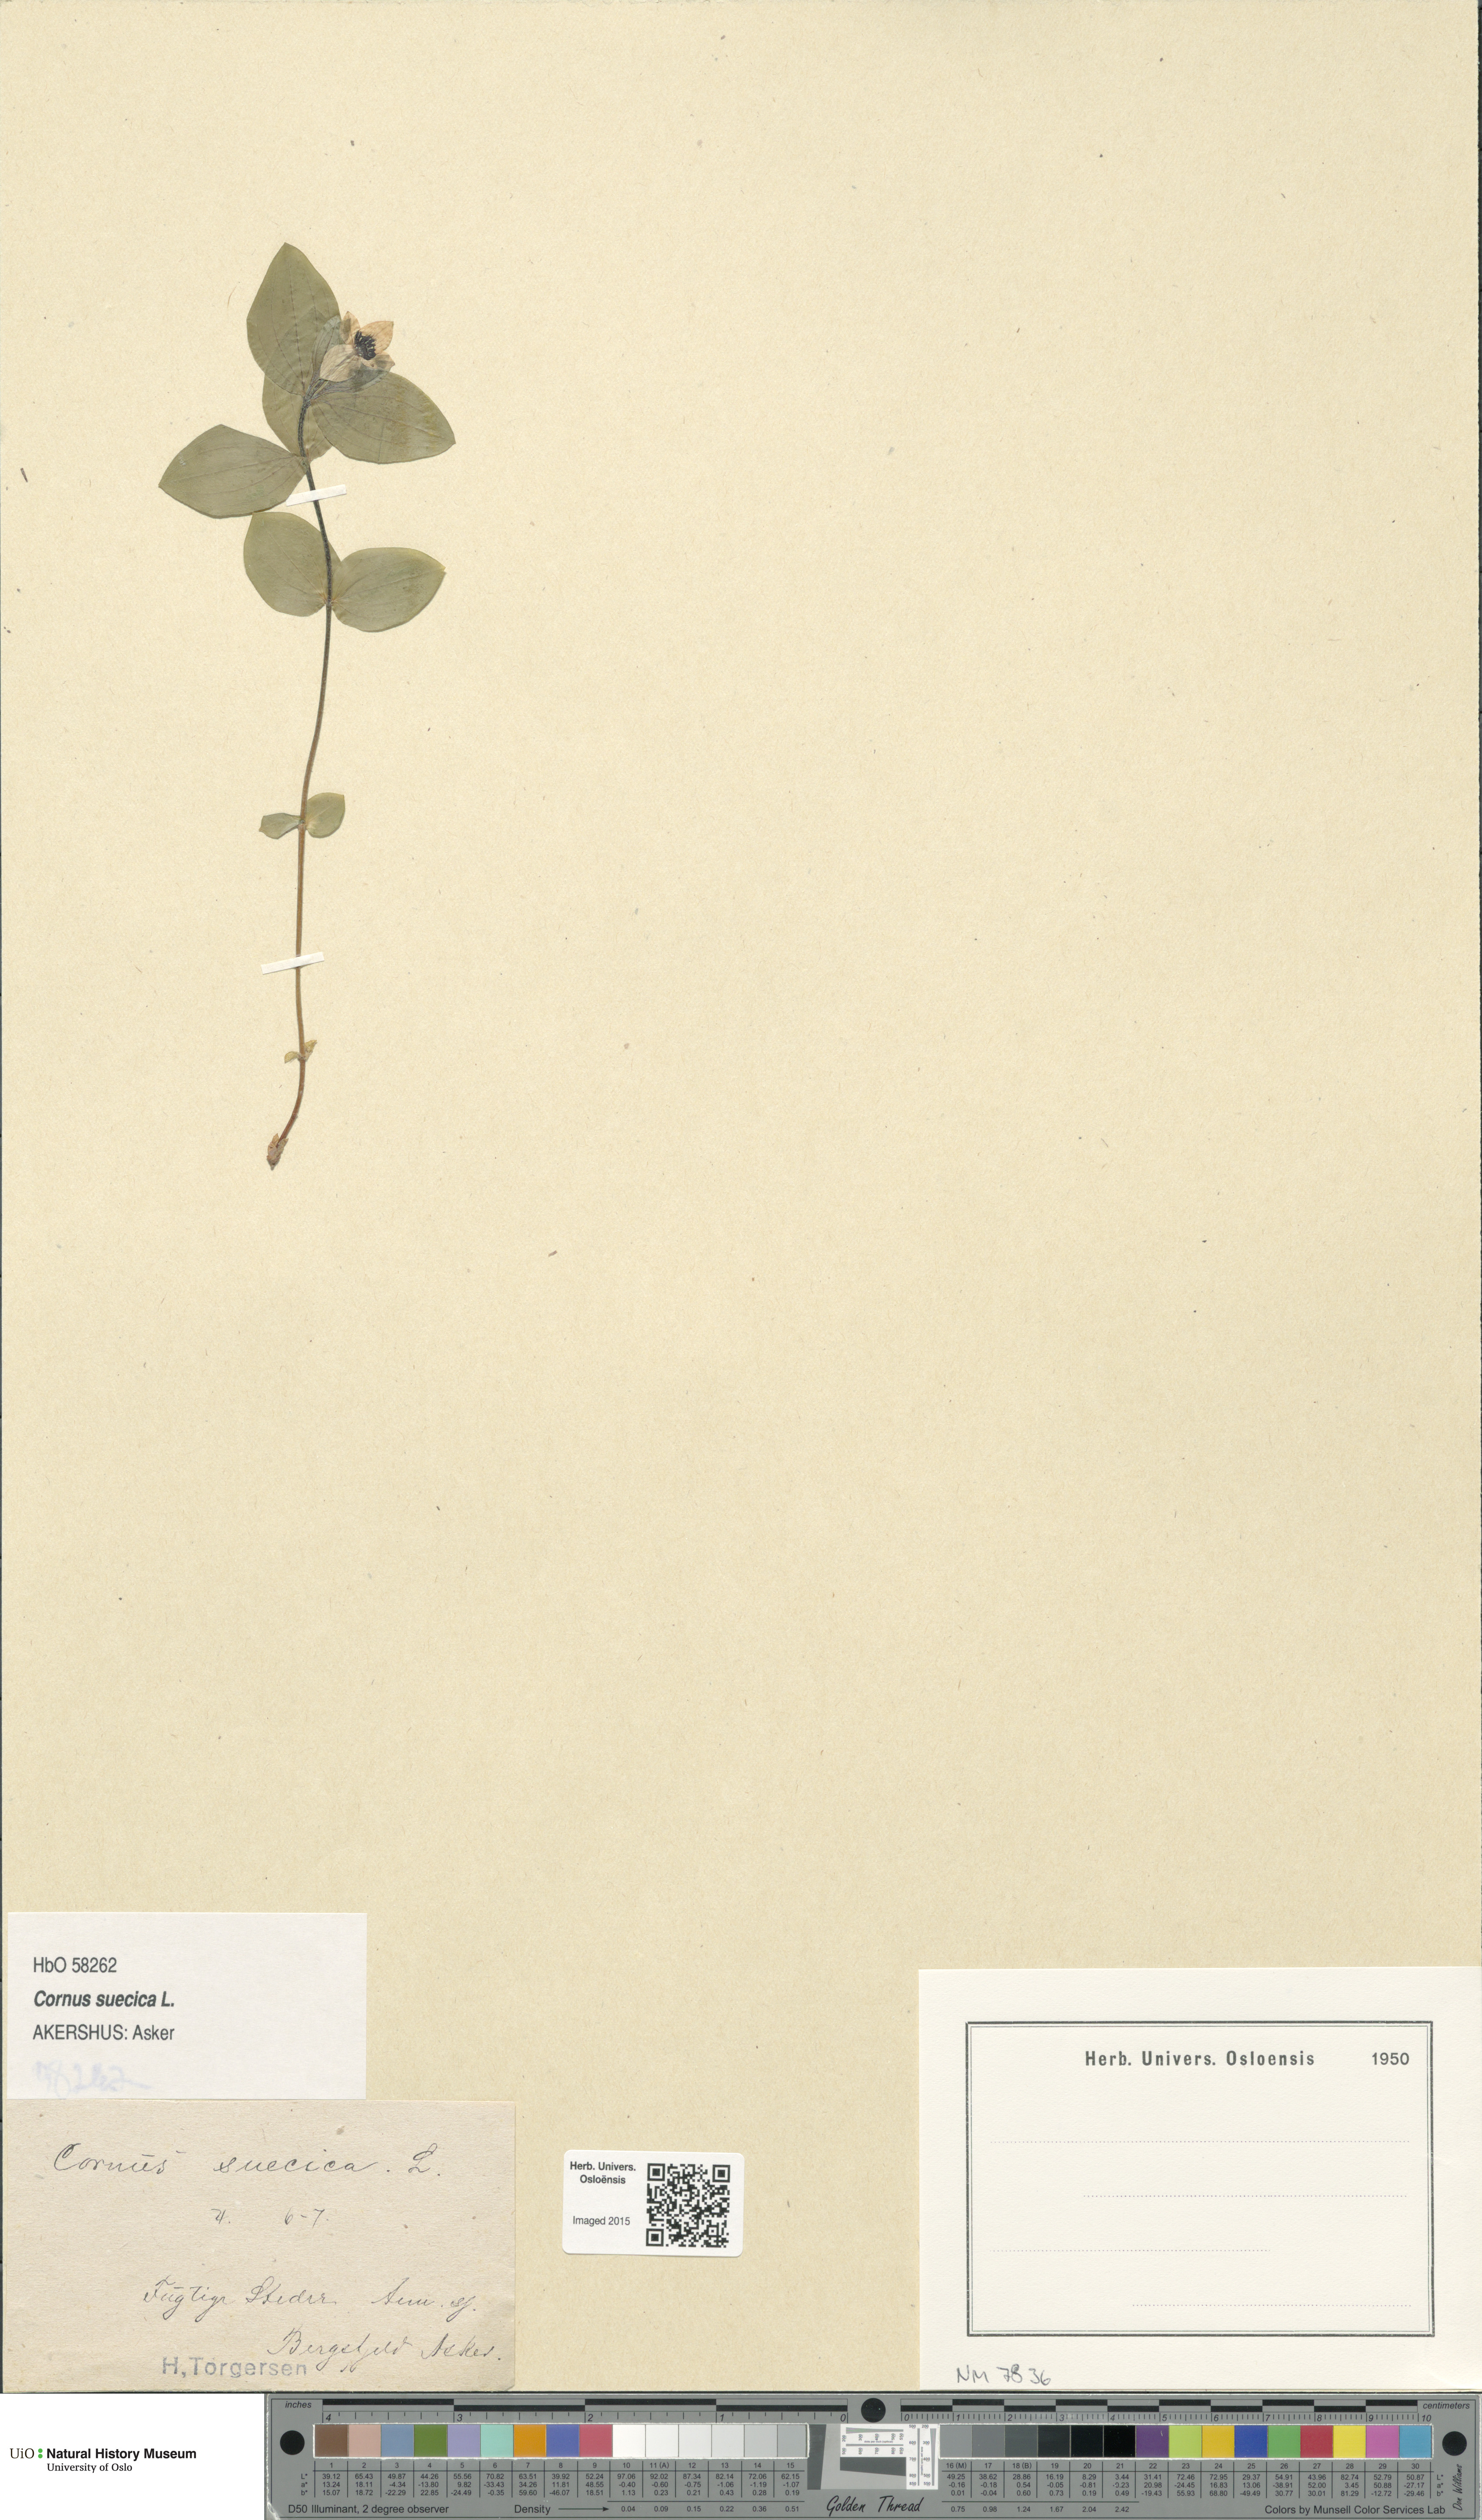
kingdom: Plantae
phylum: Tracheophyta
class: Magnoliopsida
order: Cornales
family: Cornaceae
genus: Cornus
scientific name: Cornus suecica
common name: Dwarf cornel
